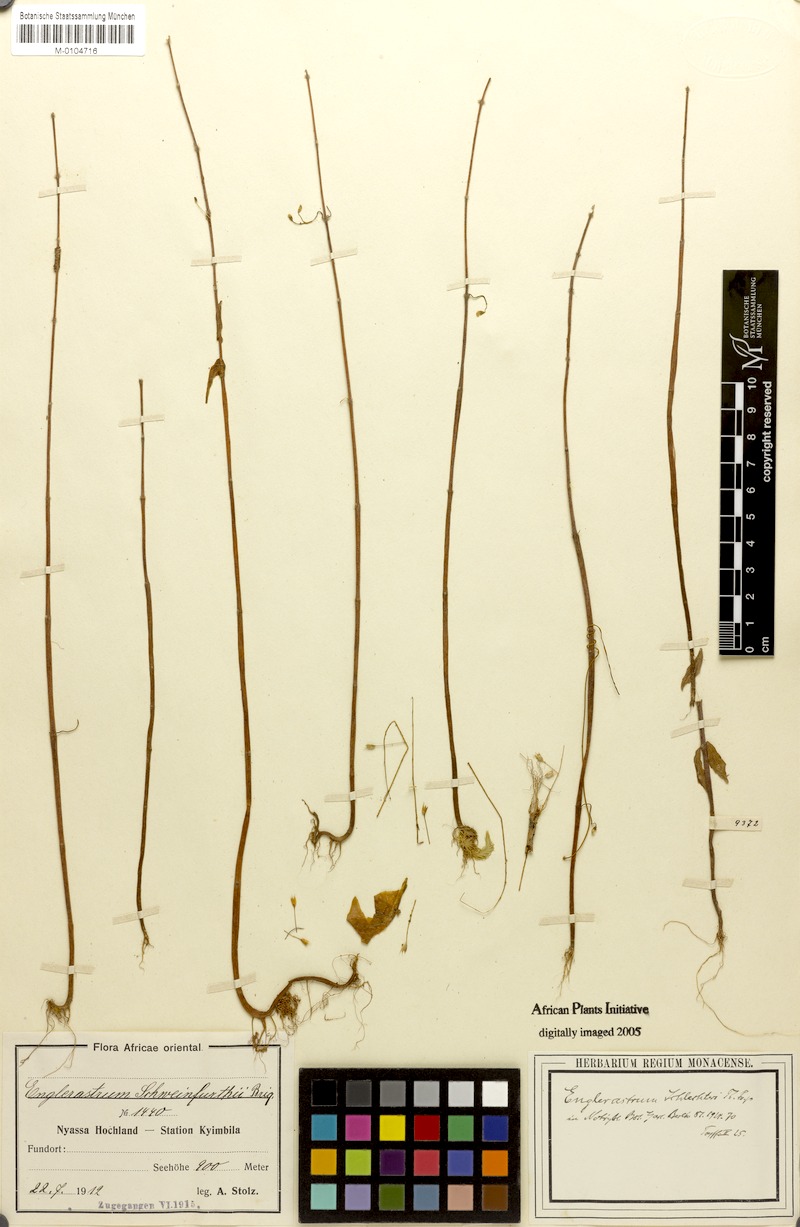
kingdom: Plantae
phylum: Tracheophyta
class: Magnoliopsida
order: Lamiales
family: Lamiaceae
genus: Coleus
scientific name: Coleus gracillimus
